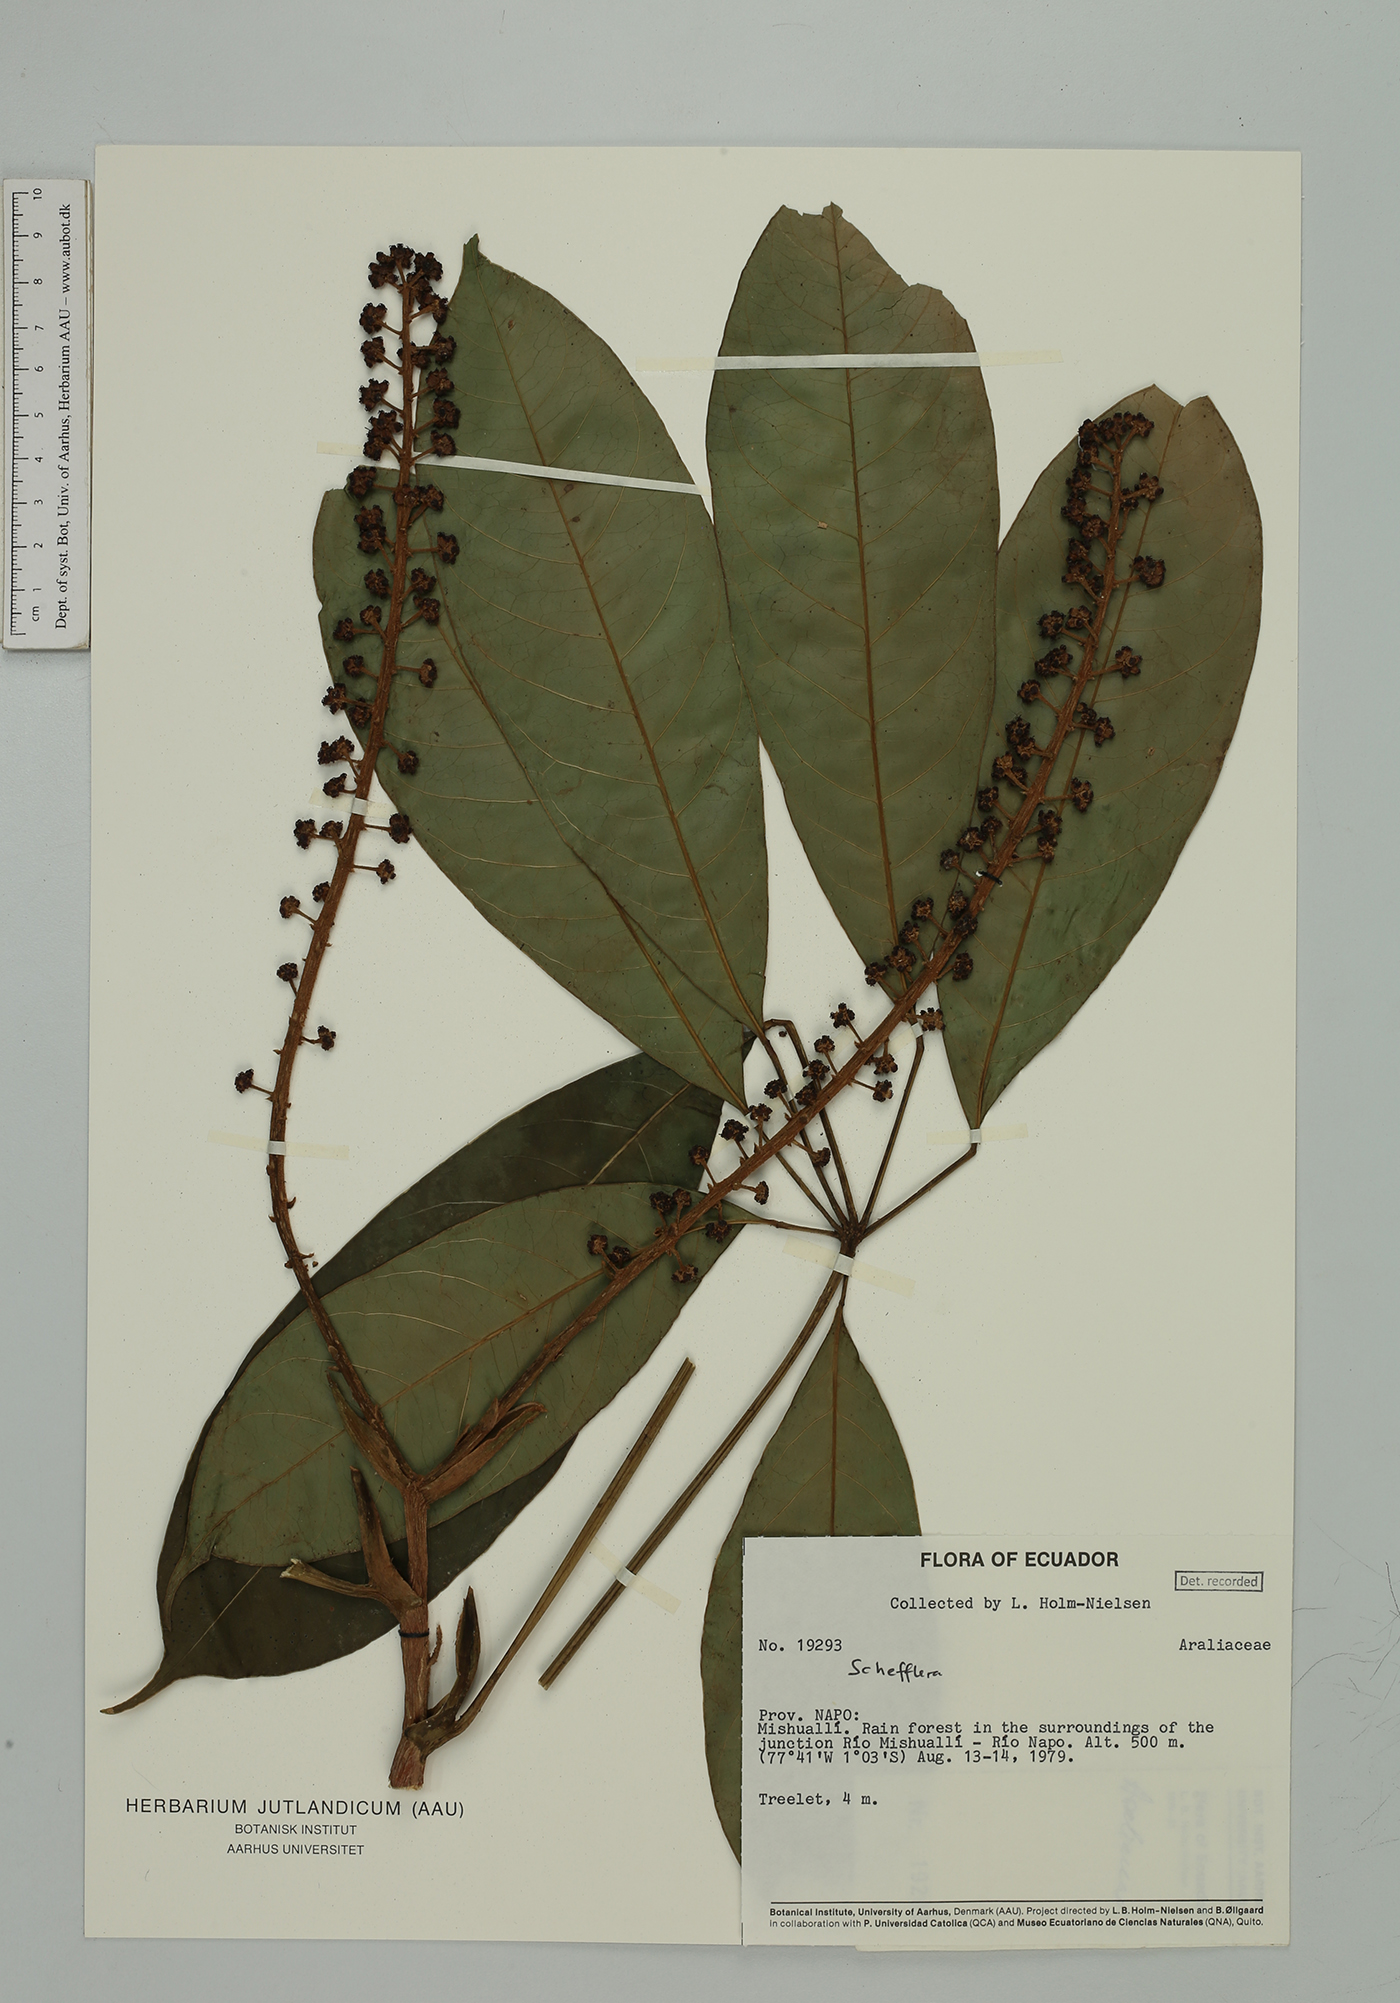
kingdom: Plantae
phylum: Tracheophyta
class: Magnoliopsida
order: Apiales
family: Araliaceae
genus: Sciodaphyllum
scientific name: Sciodaphyllum sprucei
